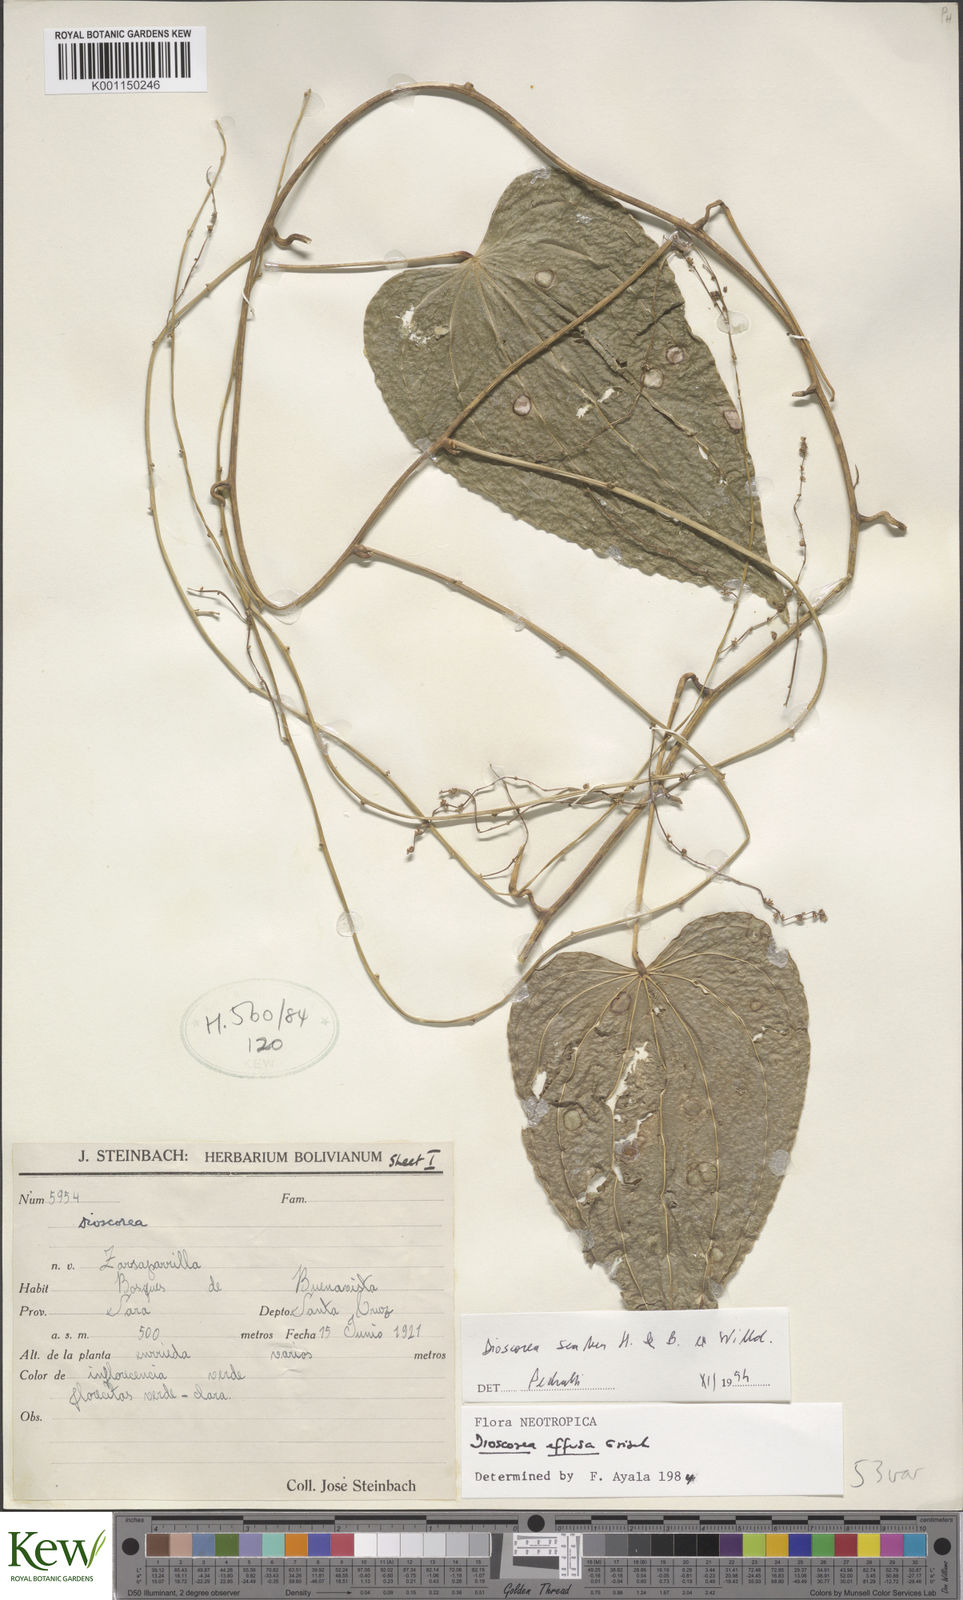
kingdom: Plantae
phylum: Tracheophyta
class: Liliopsida
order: Dioscoreales
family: Dioscoreaceae
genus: Dioscorea
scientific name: Dioscorea scabra
